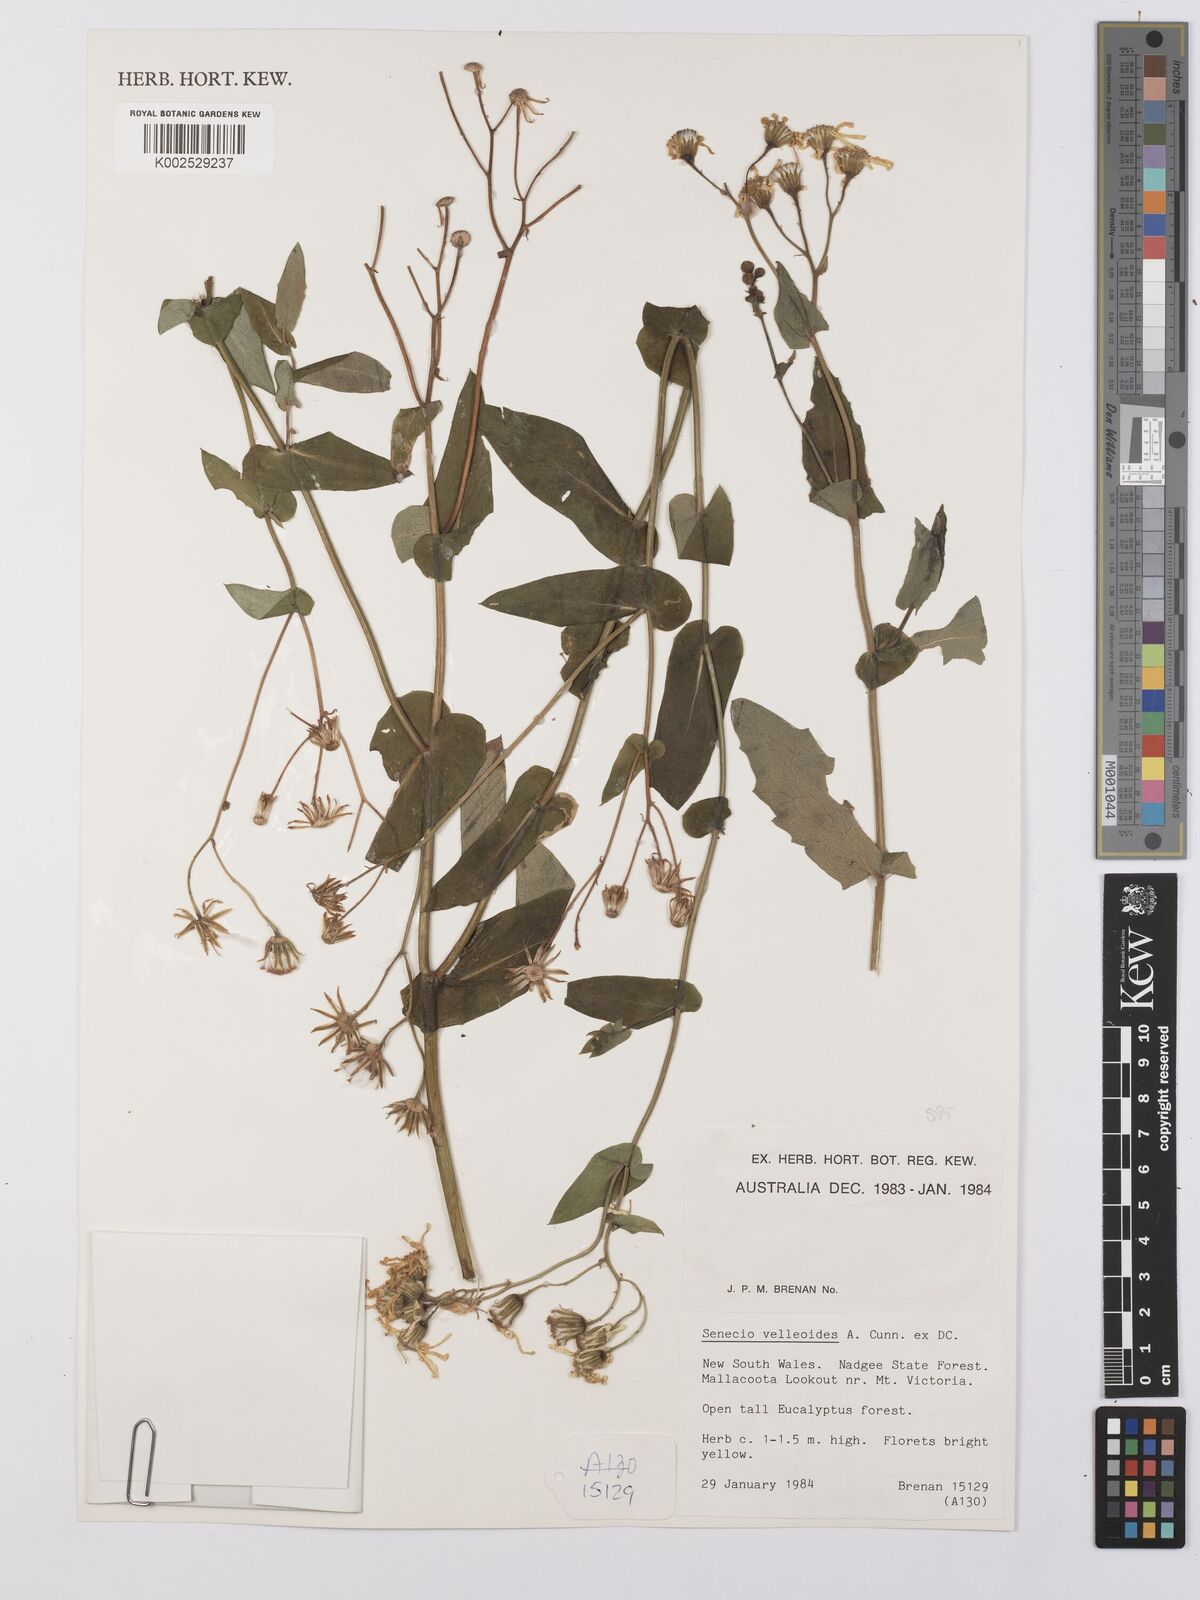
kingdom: Plantae
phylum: Tracheophyta
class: Magnoliopsida
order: Asterales
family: Asteraceae
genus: Lordhowea
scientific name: Lordhowea velleioides
